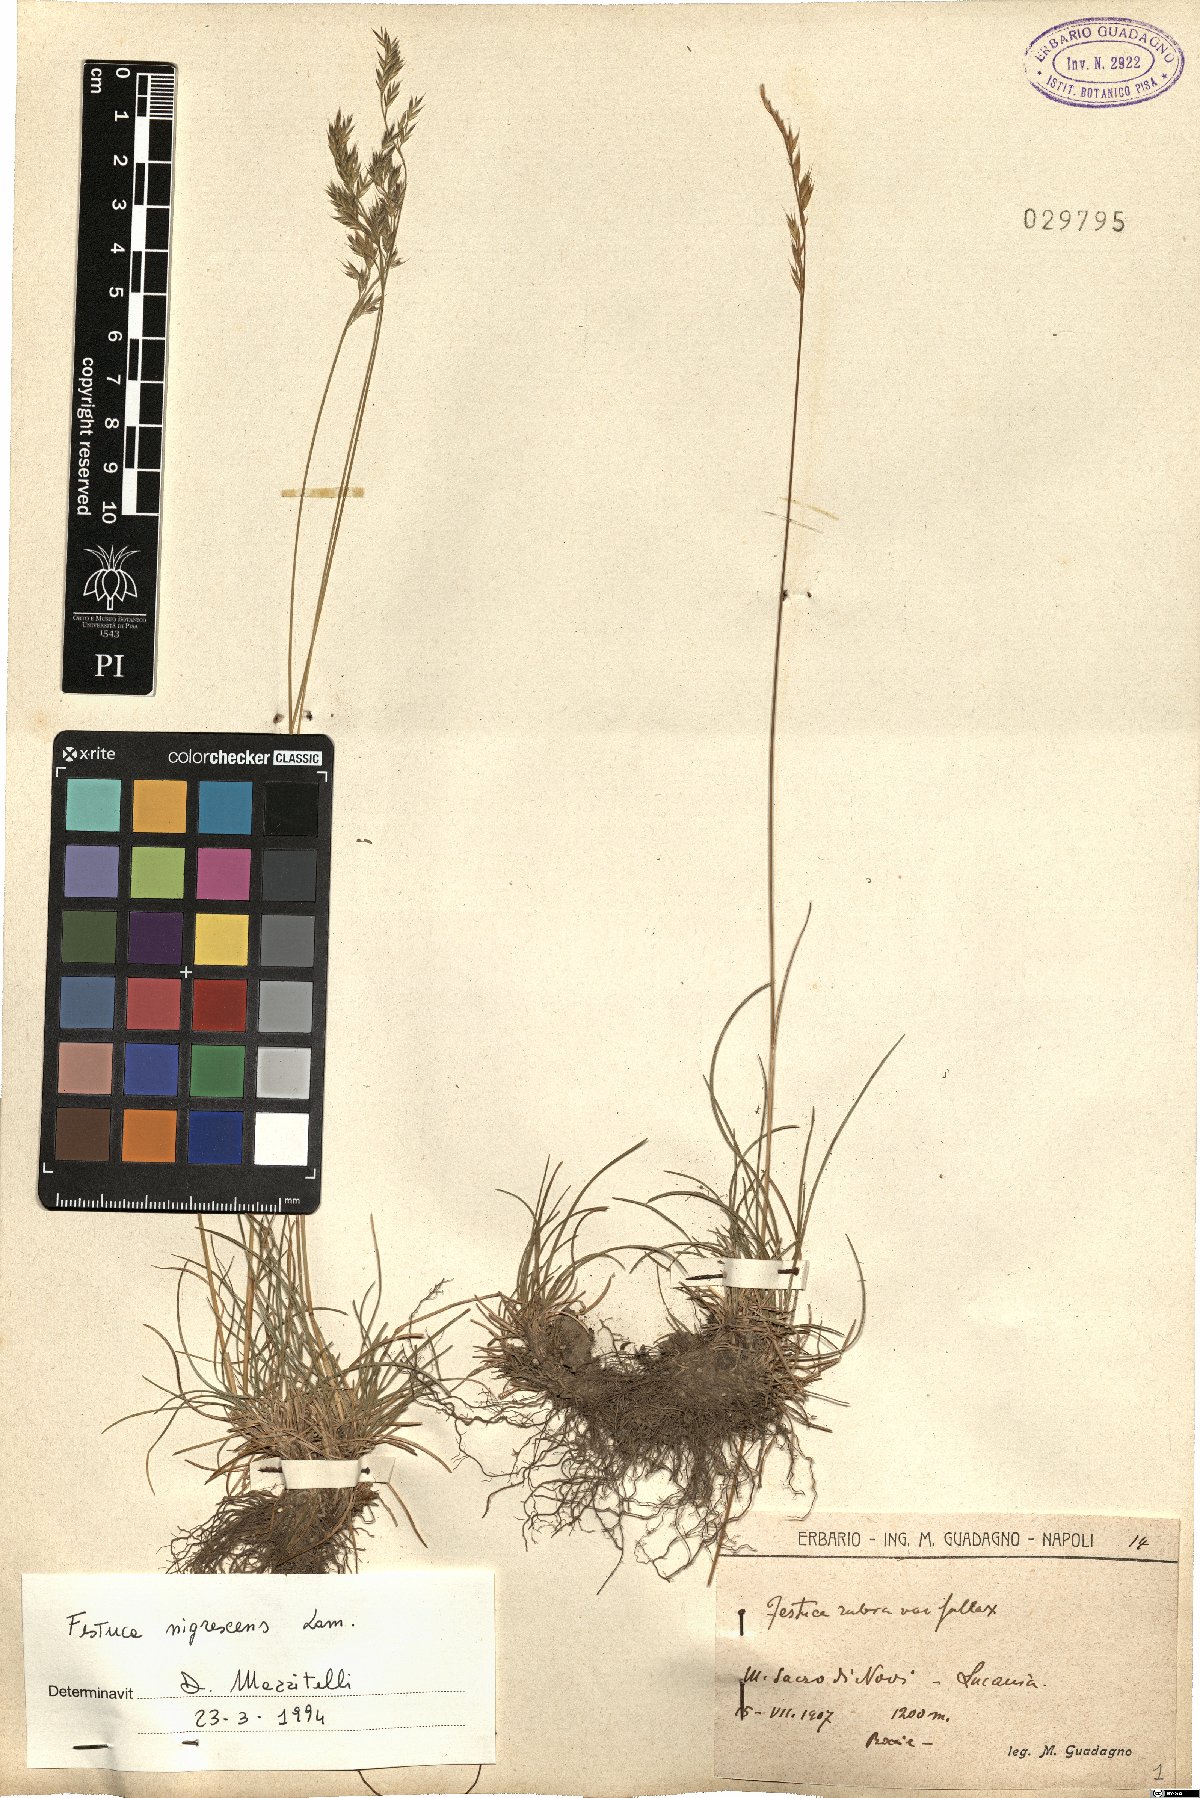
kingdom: Plantae
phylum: Tracheophyta
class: Liliopsida
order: Poales
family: Poaceae
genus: Festuca
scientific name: Festuca nigrescens
